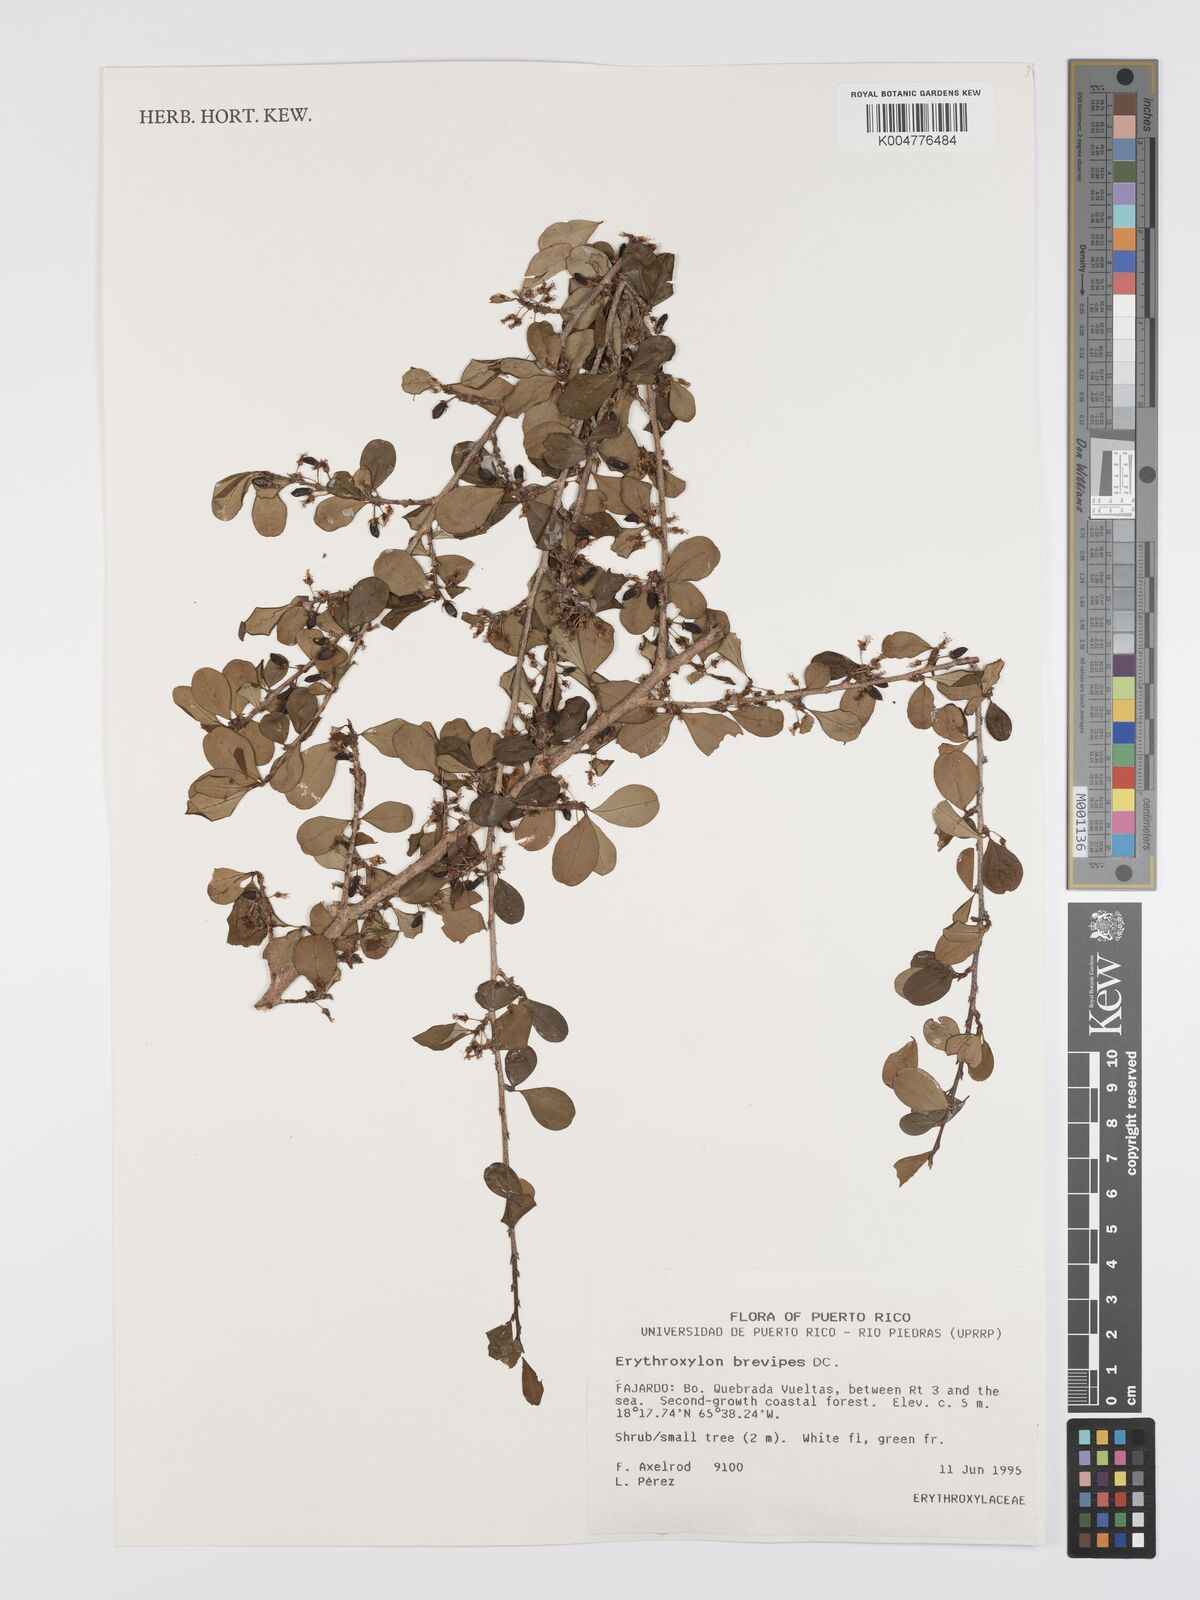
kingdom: Plantae
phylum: Tracheophyta
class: Magnoliopsida
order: Malpighiales
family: Erythroxylaceae
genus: Erythroxylum
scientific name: Erythroxylum brevipes
